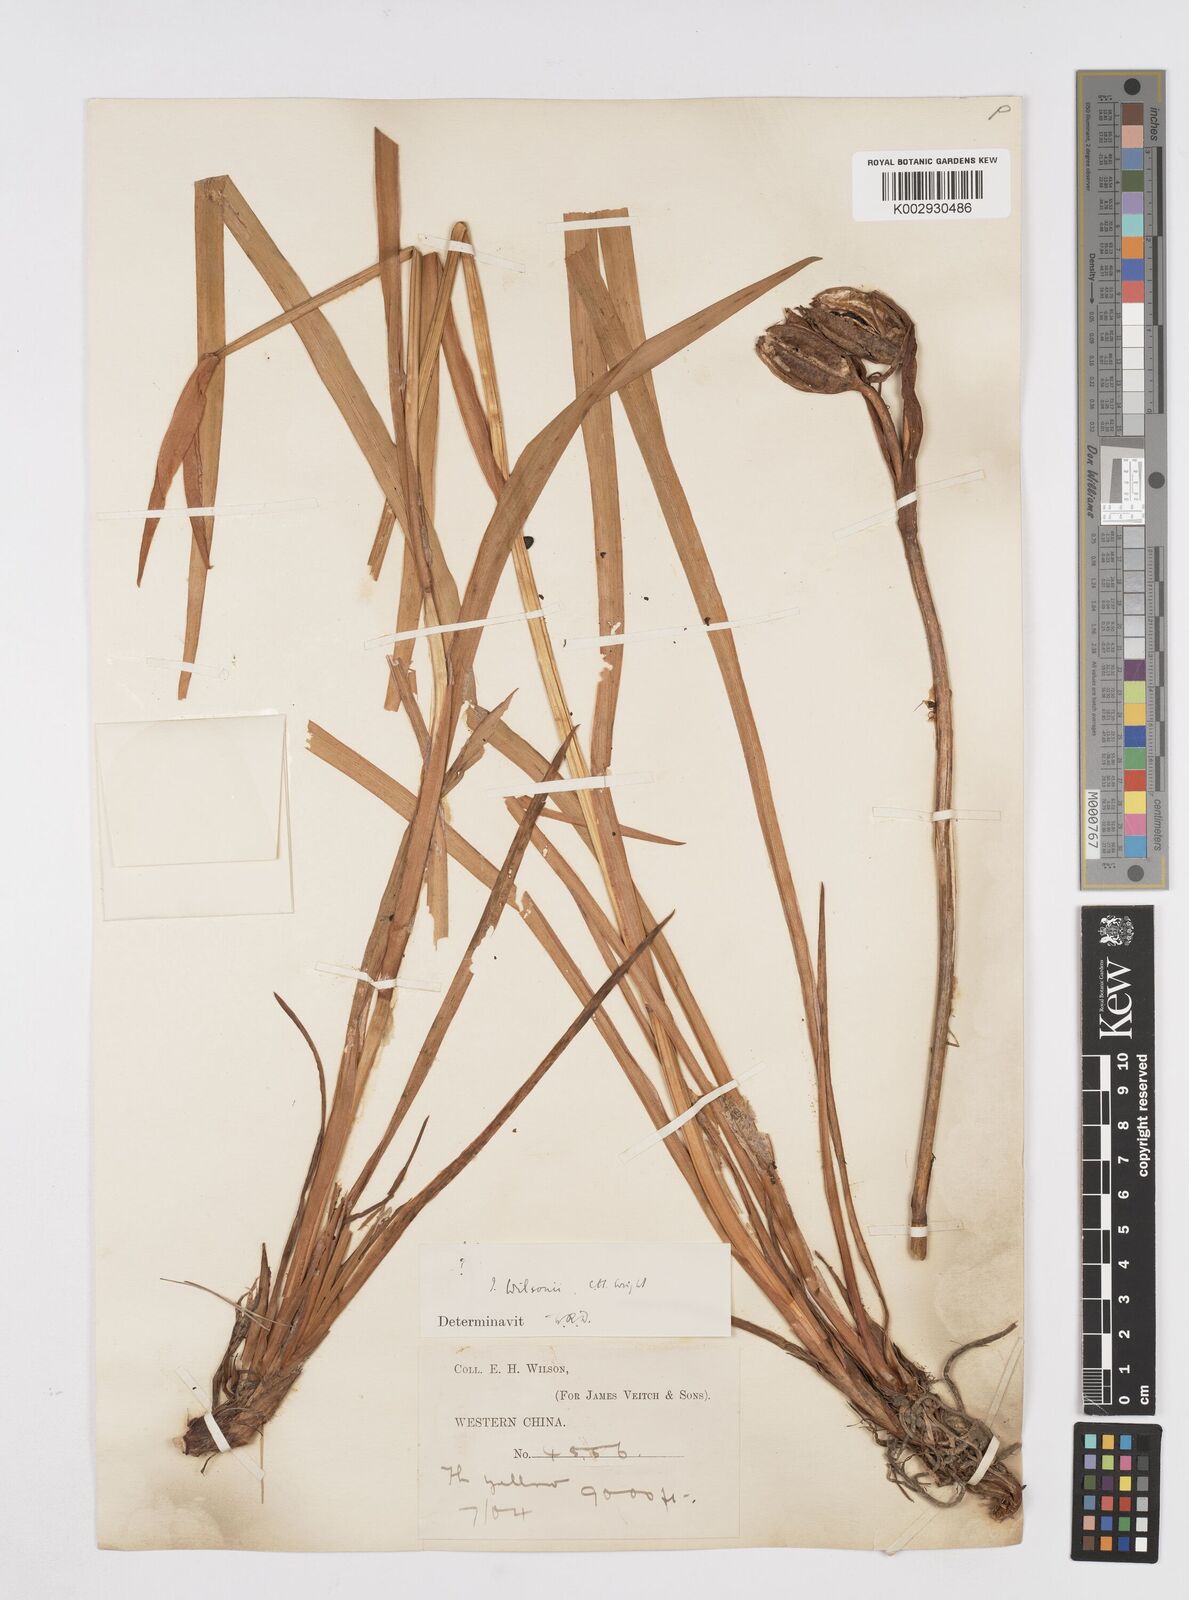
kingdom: Plantae
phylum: Tracheophyta
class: Liliopsida
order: Asparagales
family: Iridaceae
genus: Iris
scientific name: Iris wilsonii
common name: Yellow-flower iris
